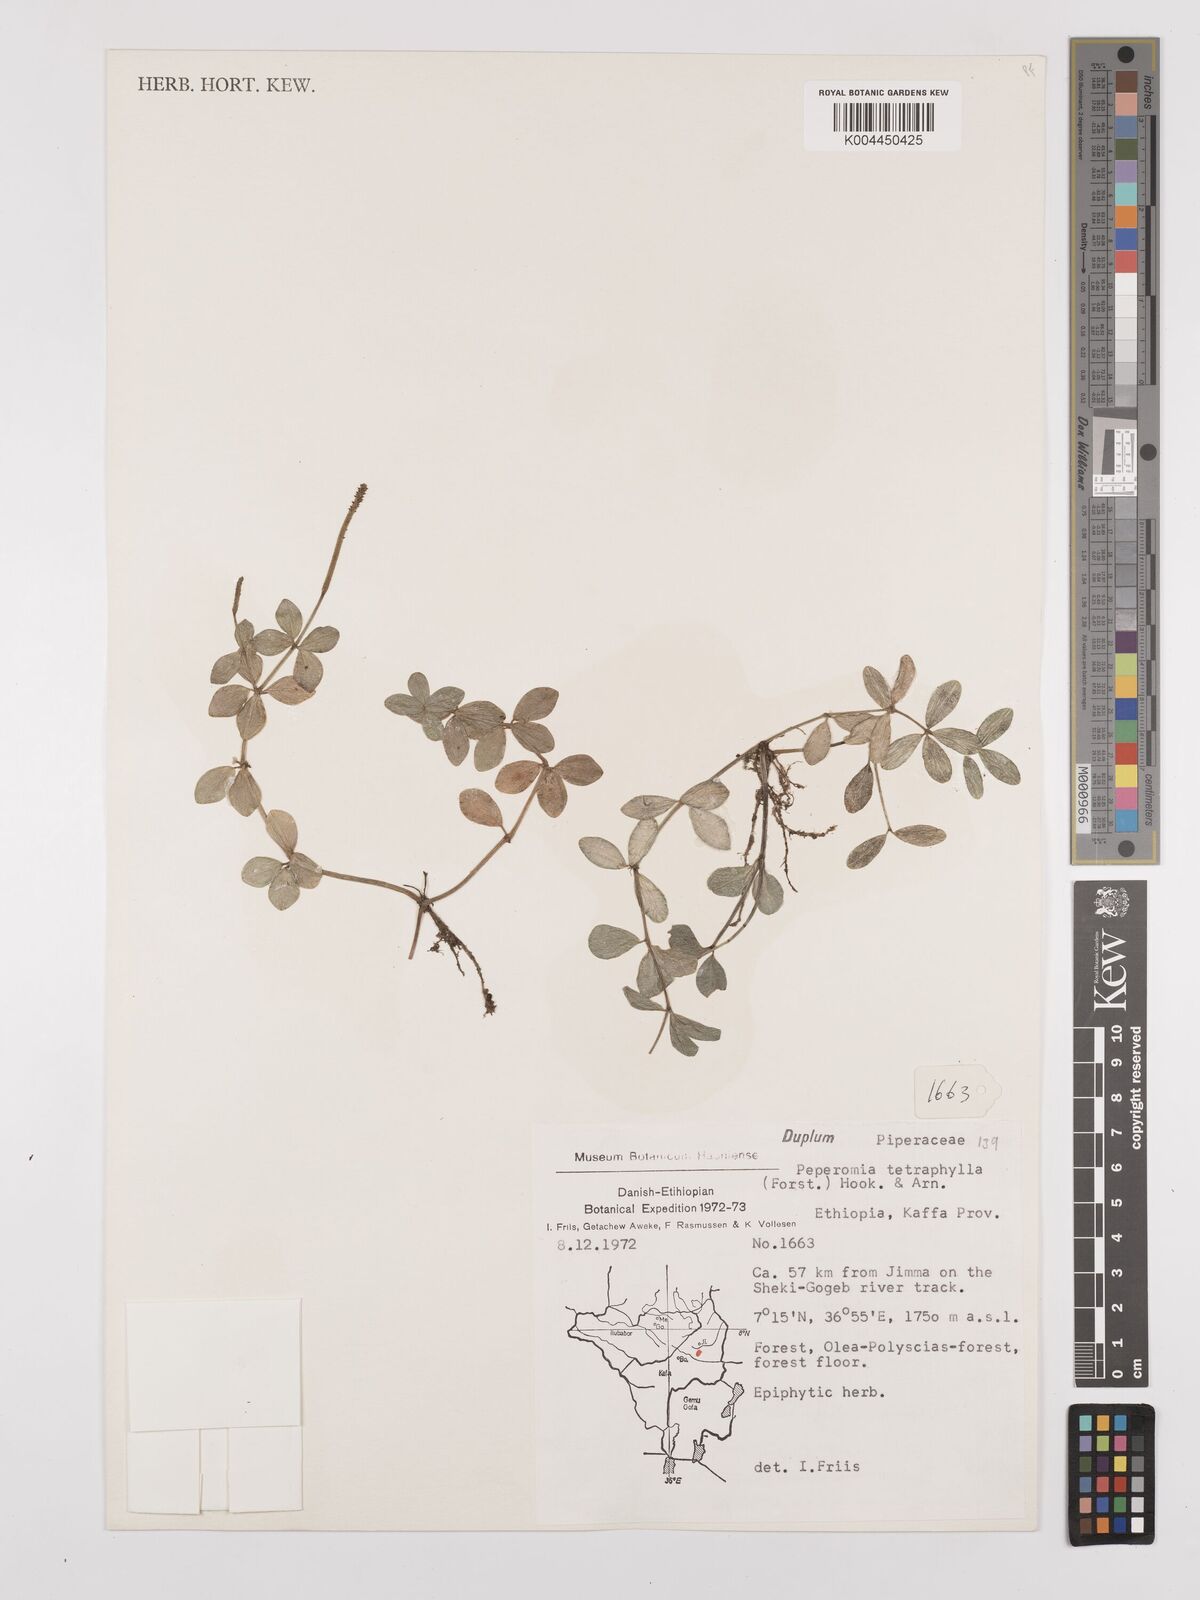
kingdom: Plantae
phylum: Tracheophyta
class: Magnoliopsida
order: Piperales
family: Piperaceae
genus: Peperomia
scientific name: Peperomia tetraphylla
